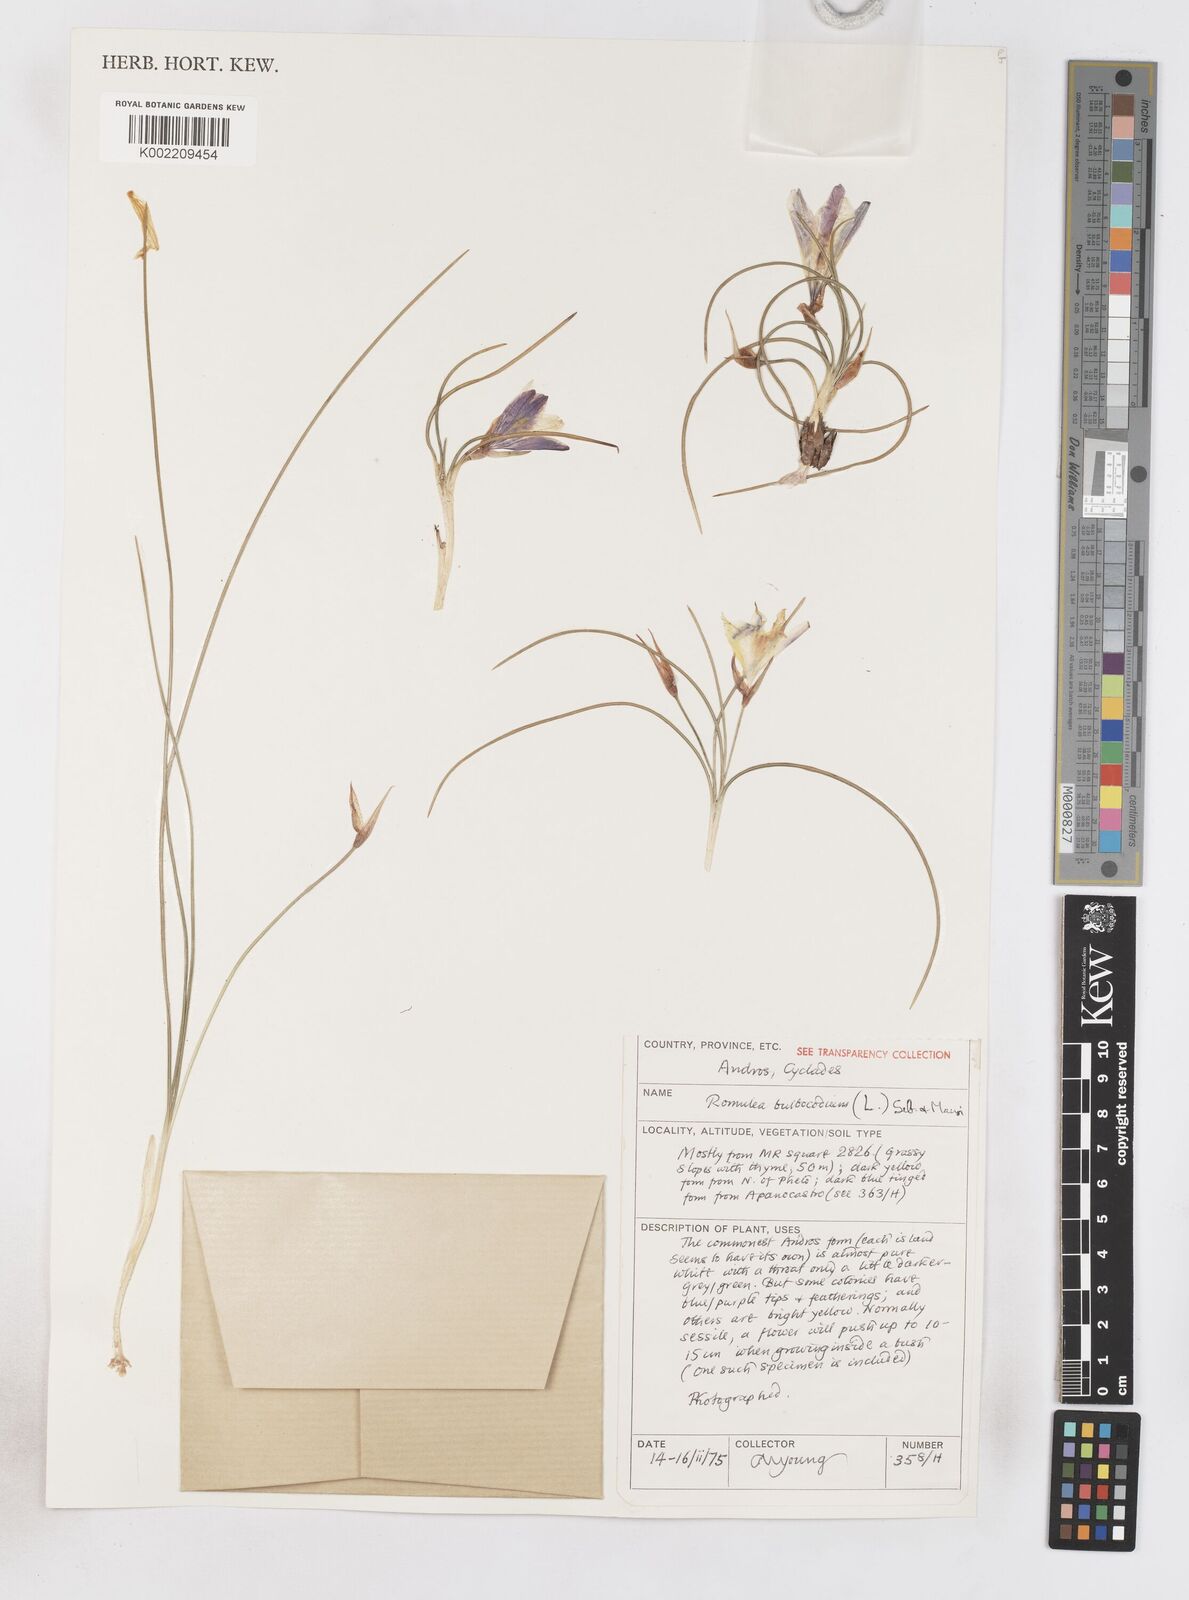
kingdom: Plantae
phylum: Tracheophyta
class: Liliopsida
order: Asparagales
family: Iridaceae
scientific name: Iridaceae
